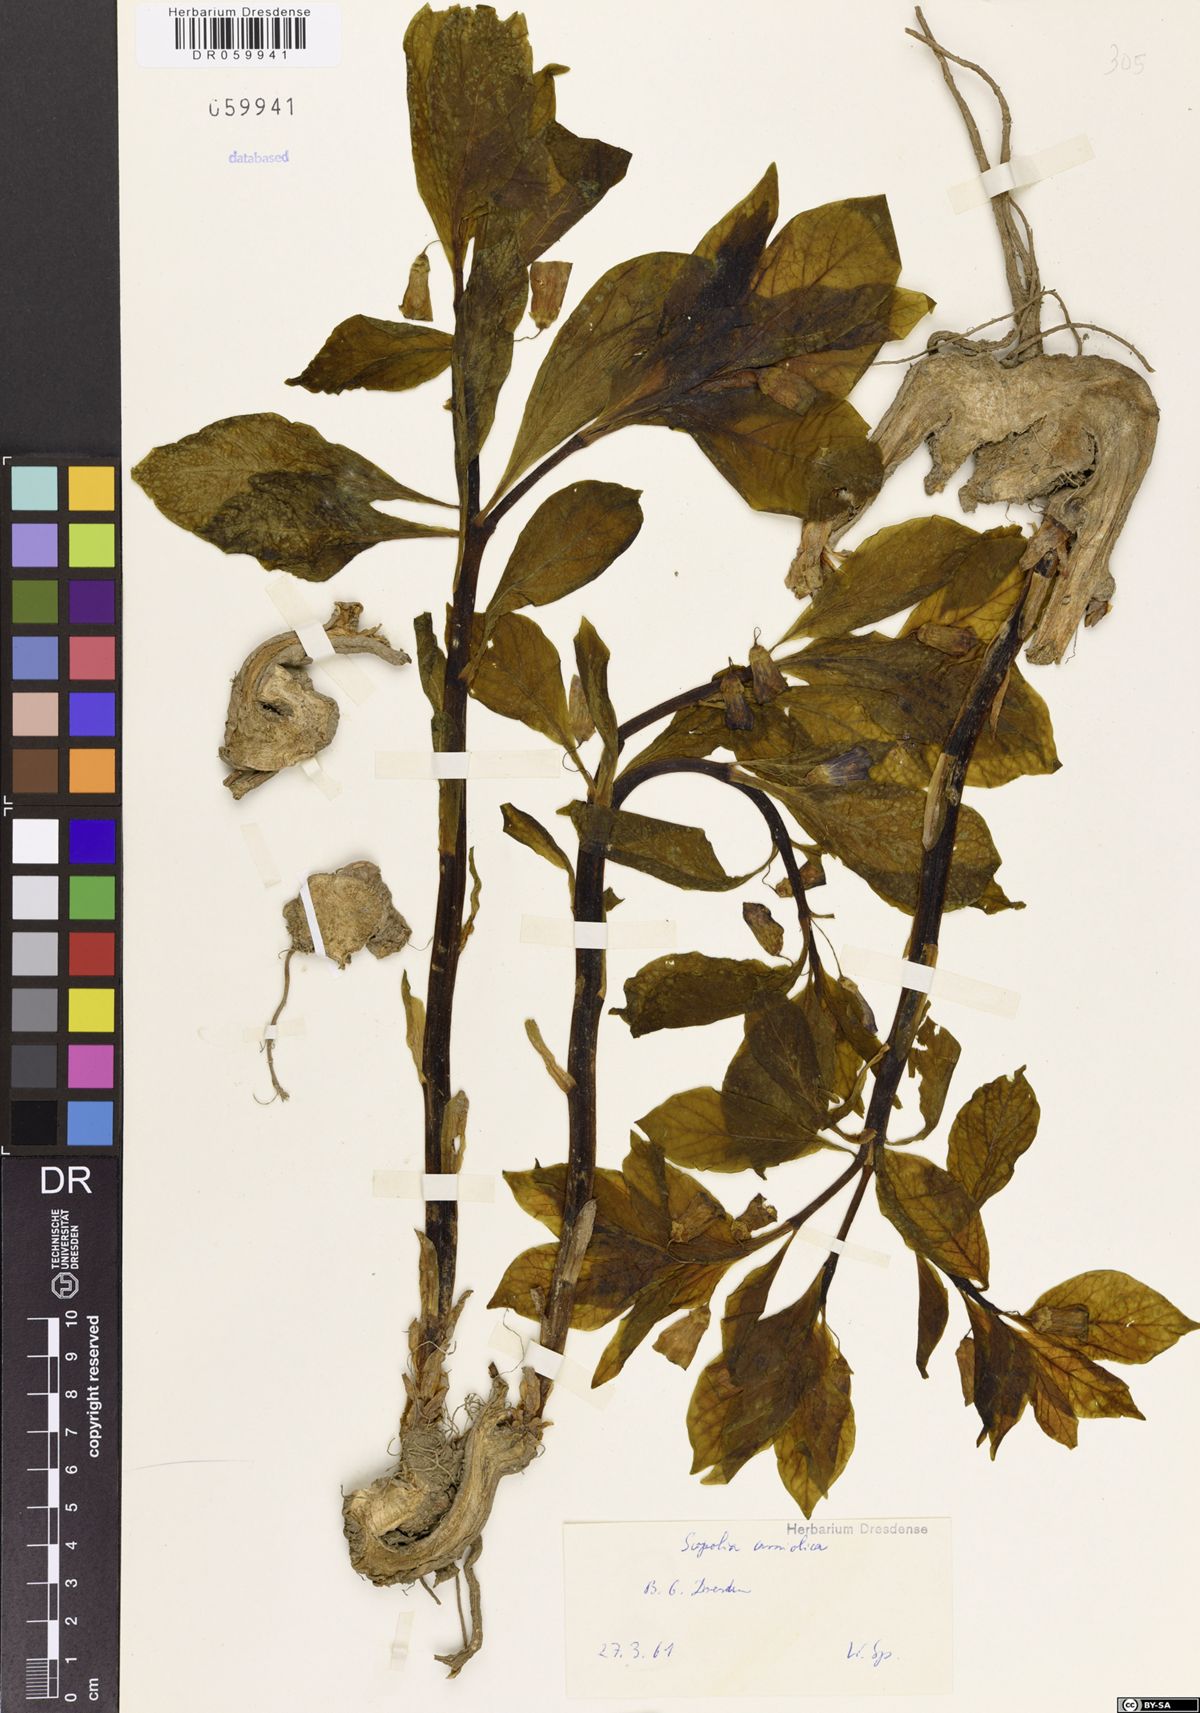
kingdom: Plantae
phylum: Tracheophyta
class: Magnoliopsida
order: Solanales
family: Solanaceae
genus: Scopolia
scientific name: Scopolia carniolica
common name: Scopolia
